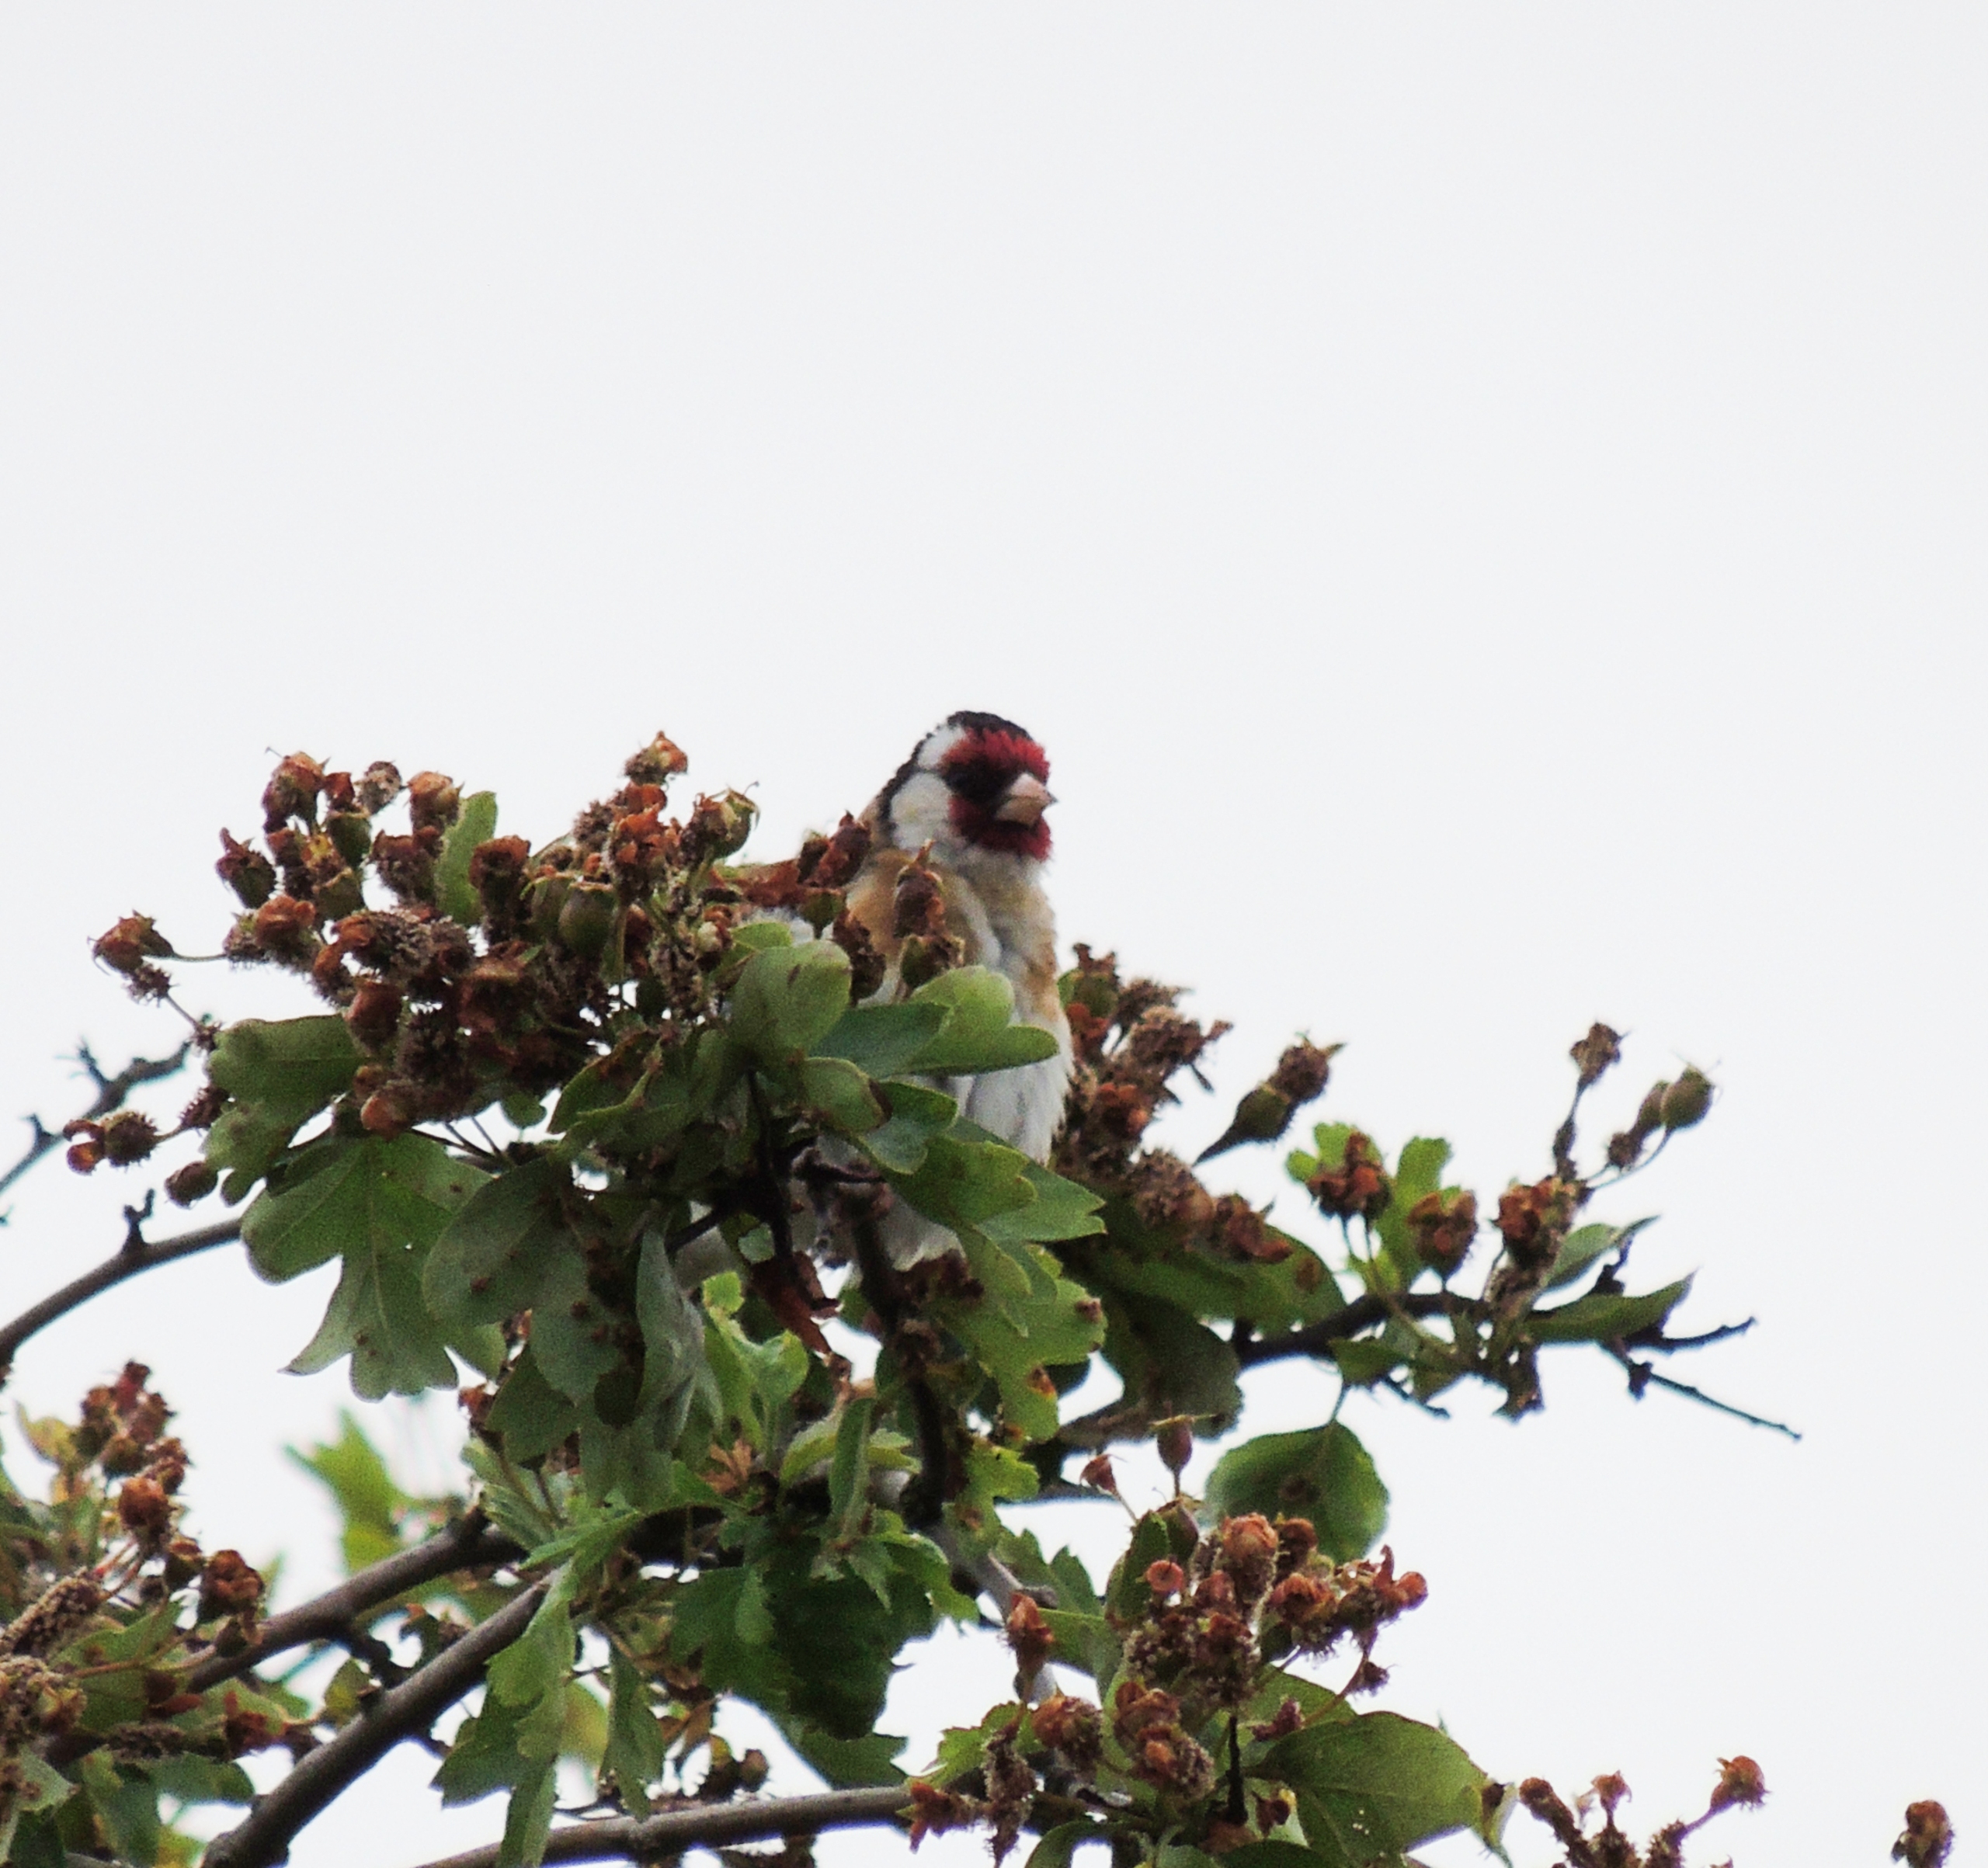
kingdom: Animalia
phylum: Chordata
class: Aves
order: Passeriformes
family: Fringillidae
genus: Carduelis
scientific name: Carduelis carduelis
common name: Stillits
